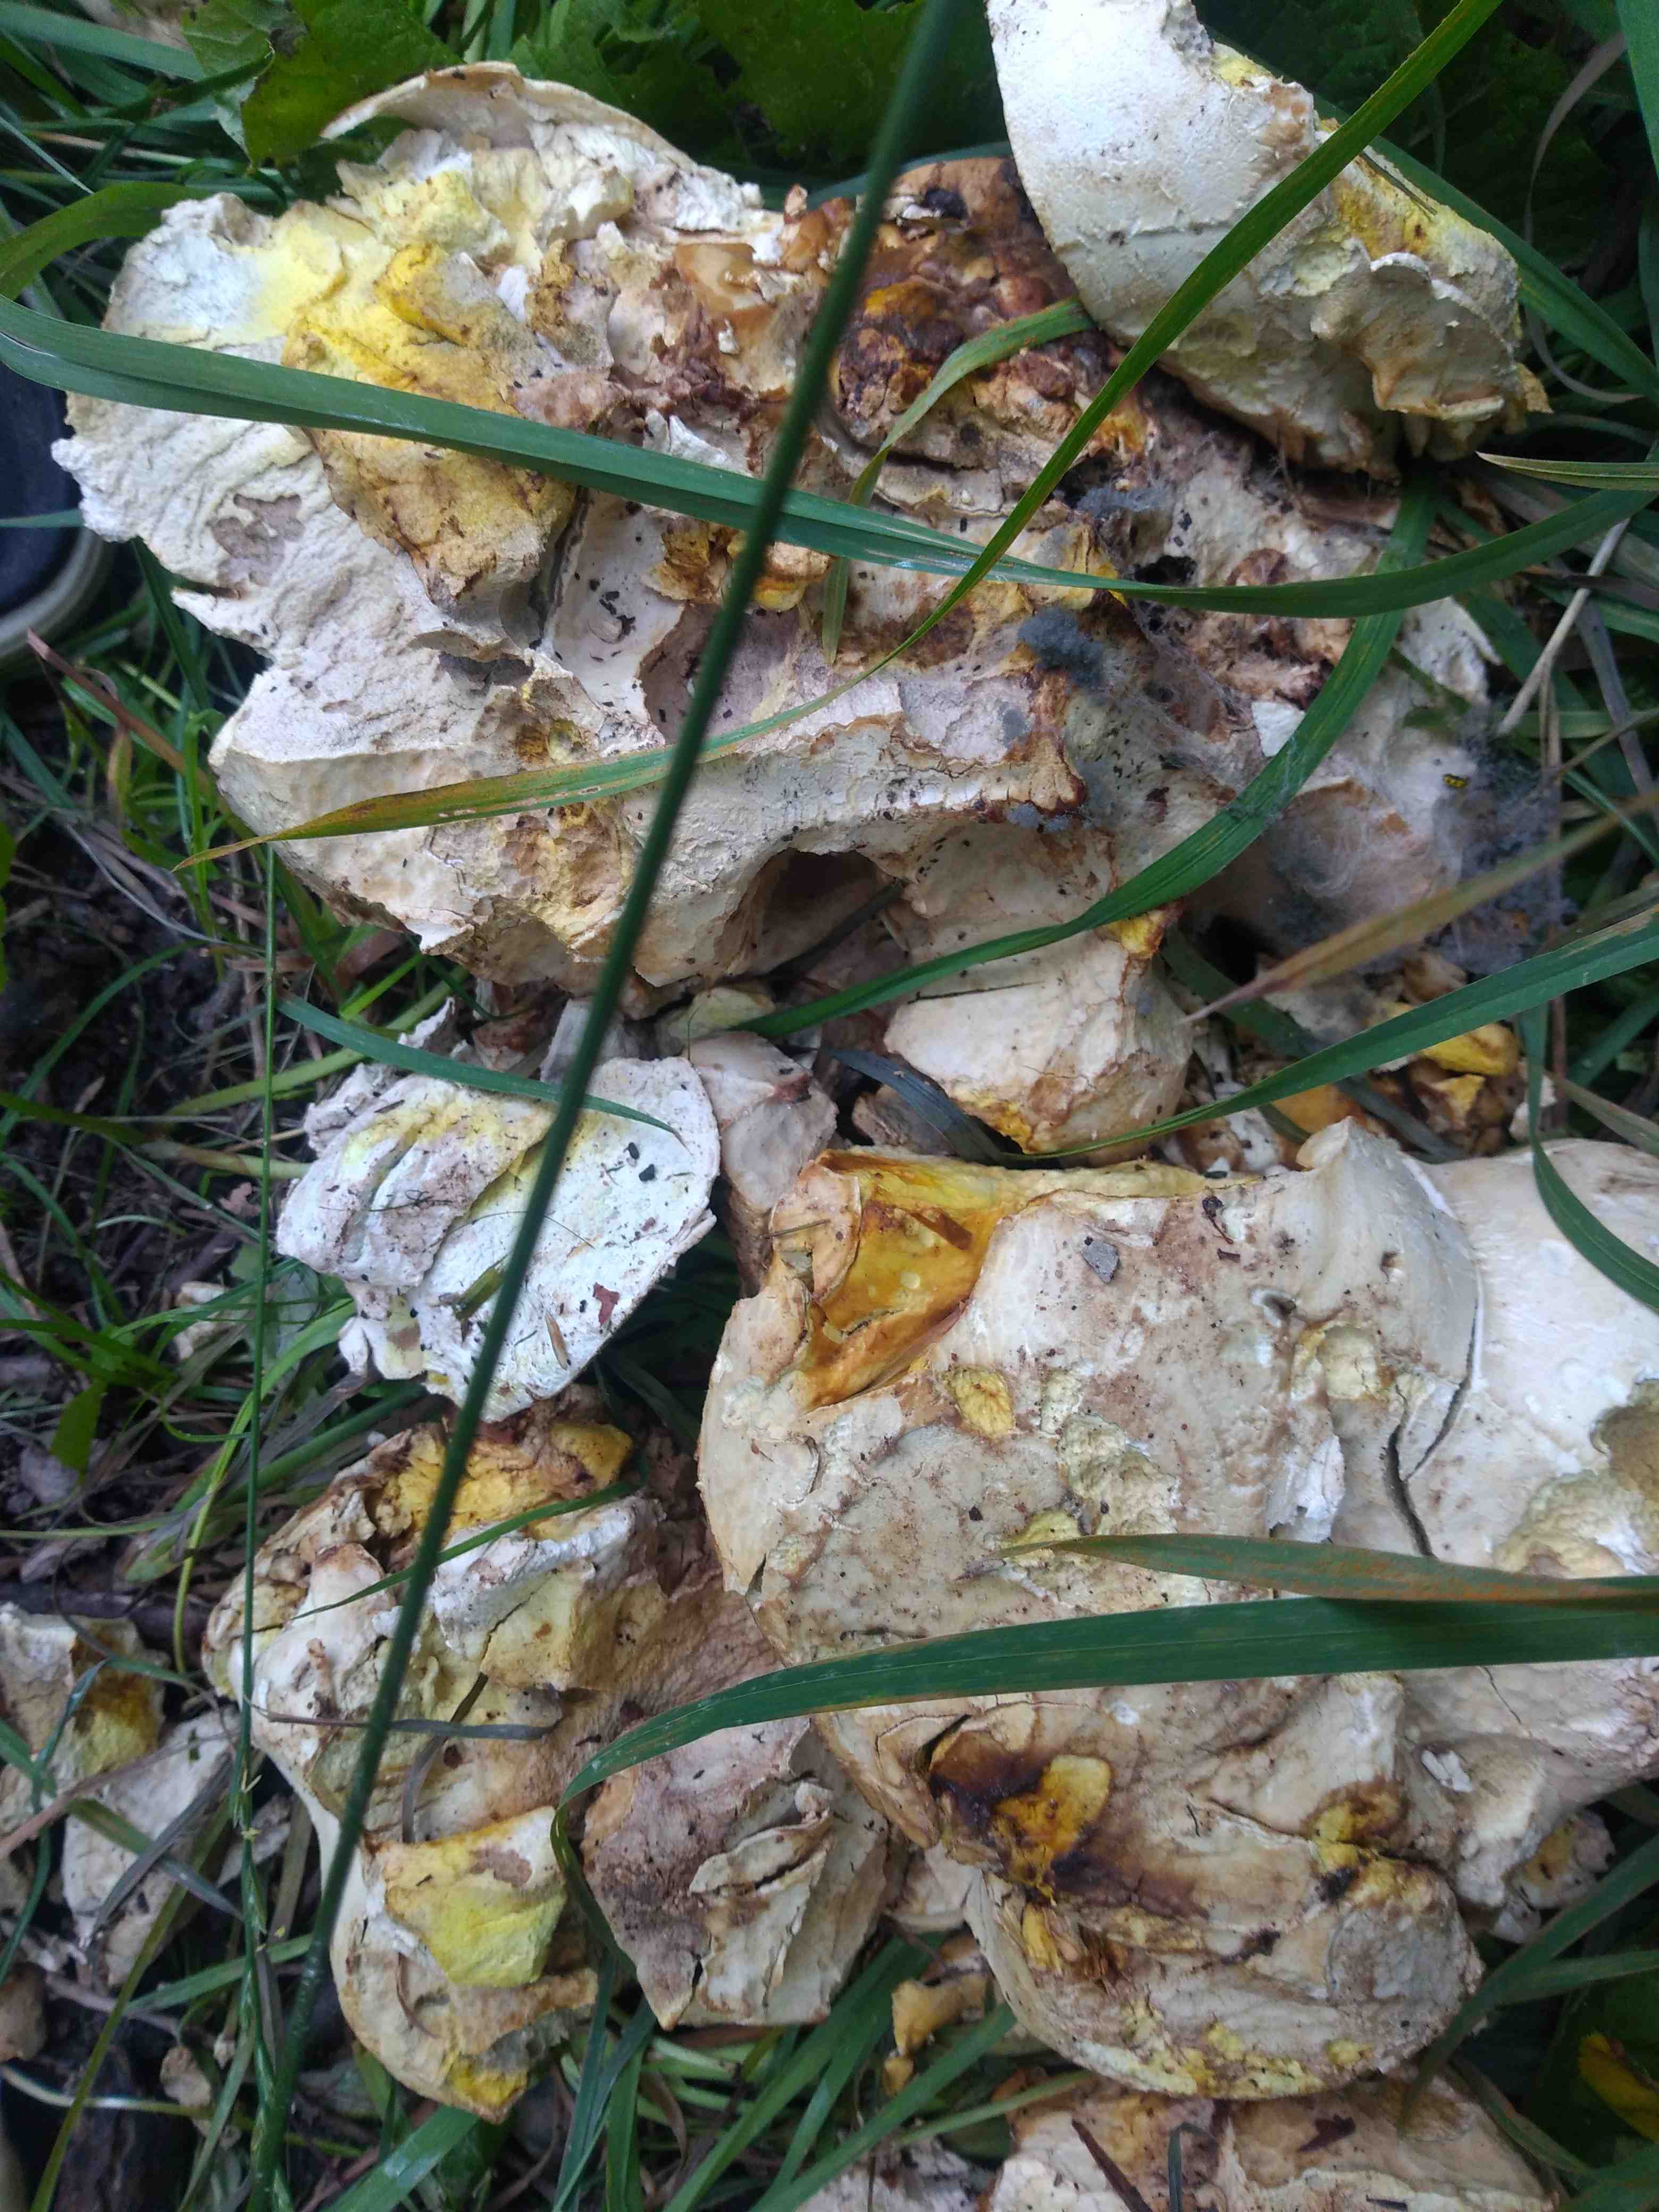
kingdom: Fungi
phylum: Basidiomycota
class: Agaricomycetes
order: Boletales
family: Boletaceae
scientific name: Boletaceae
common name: rørhatfamilien
